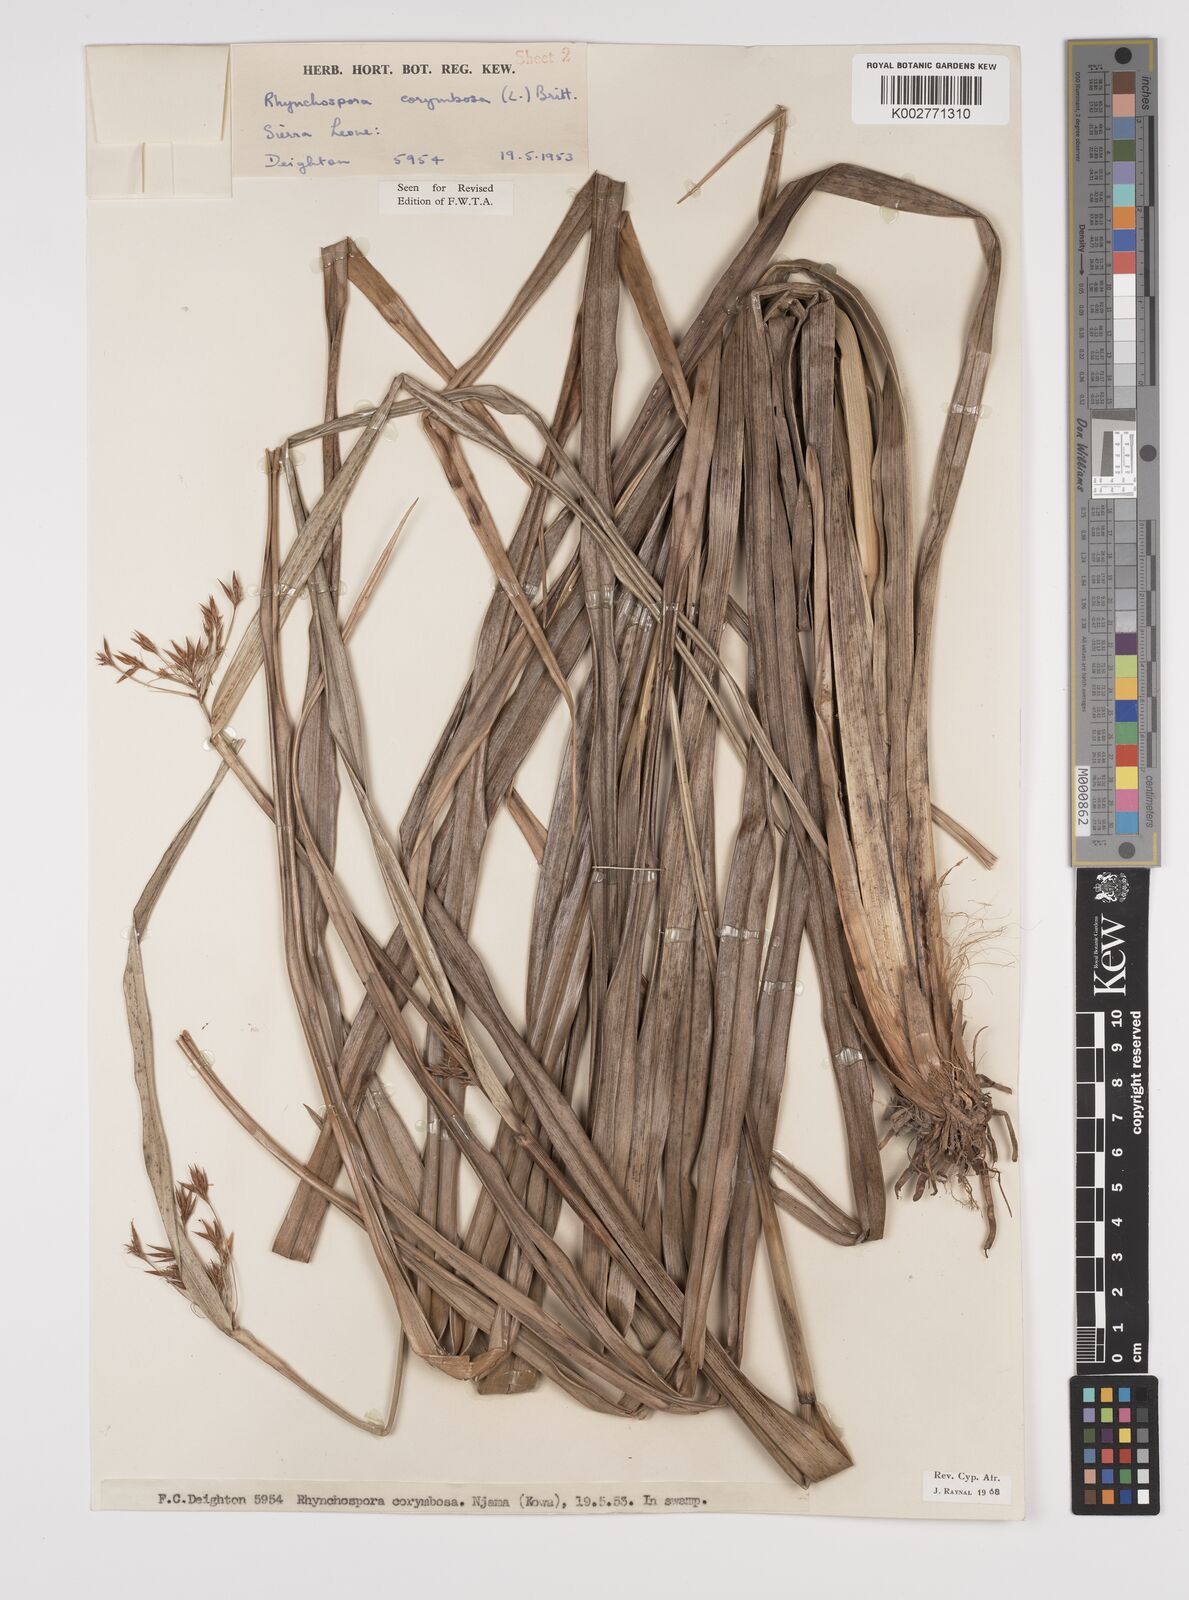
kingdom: Plantae
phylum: Tracheophyta
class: Liliopsida
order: Poales
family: Cyperaceae
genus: Rhynchospora
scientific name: Rhynchospora corymbosa
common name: Golden beak sedge
